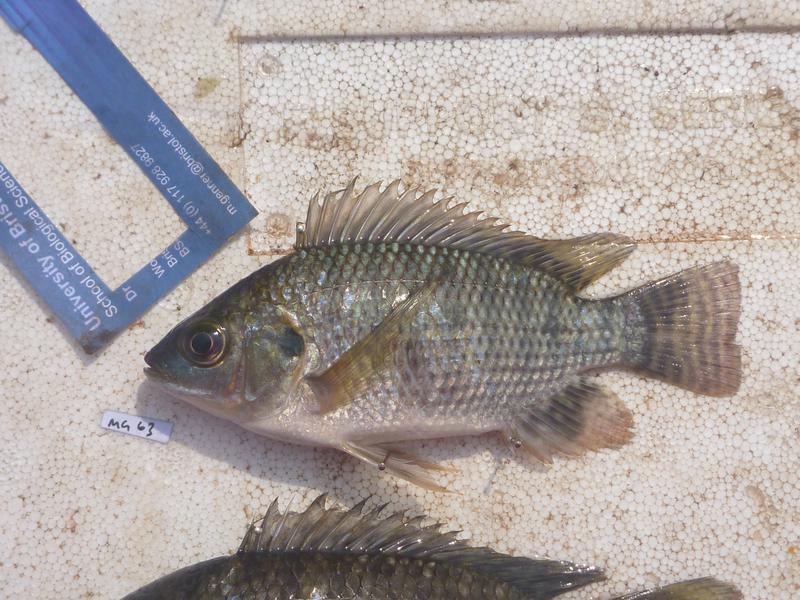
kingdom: Animalia
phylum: Chordata
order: Perciformes
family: Cichlidae
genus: Oreochromis
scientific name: Oreochromis niloticus
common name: Nile tilapia
